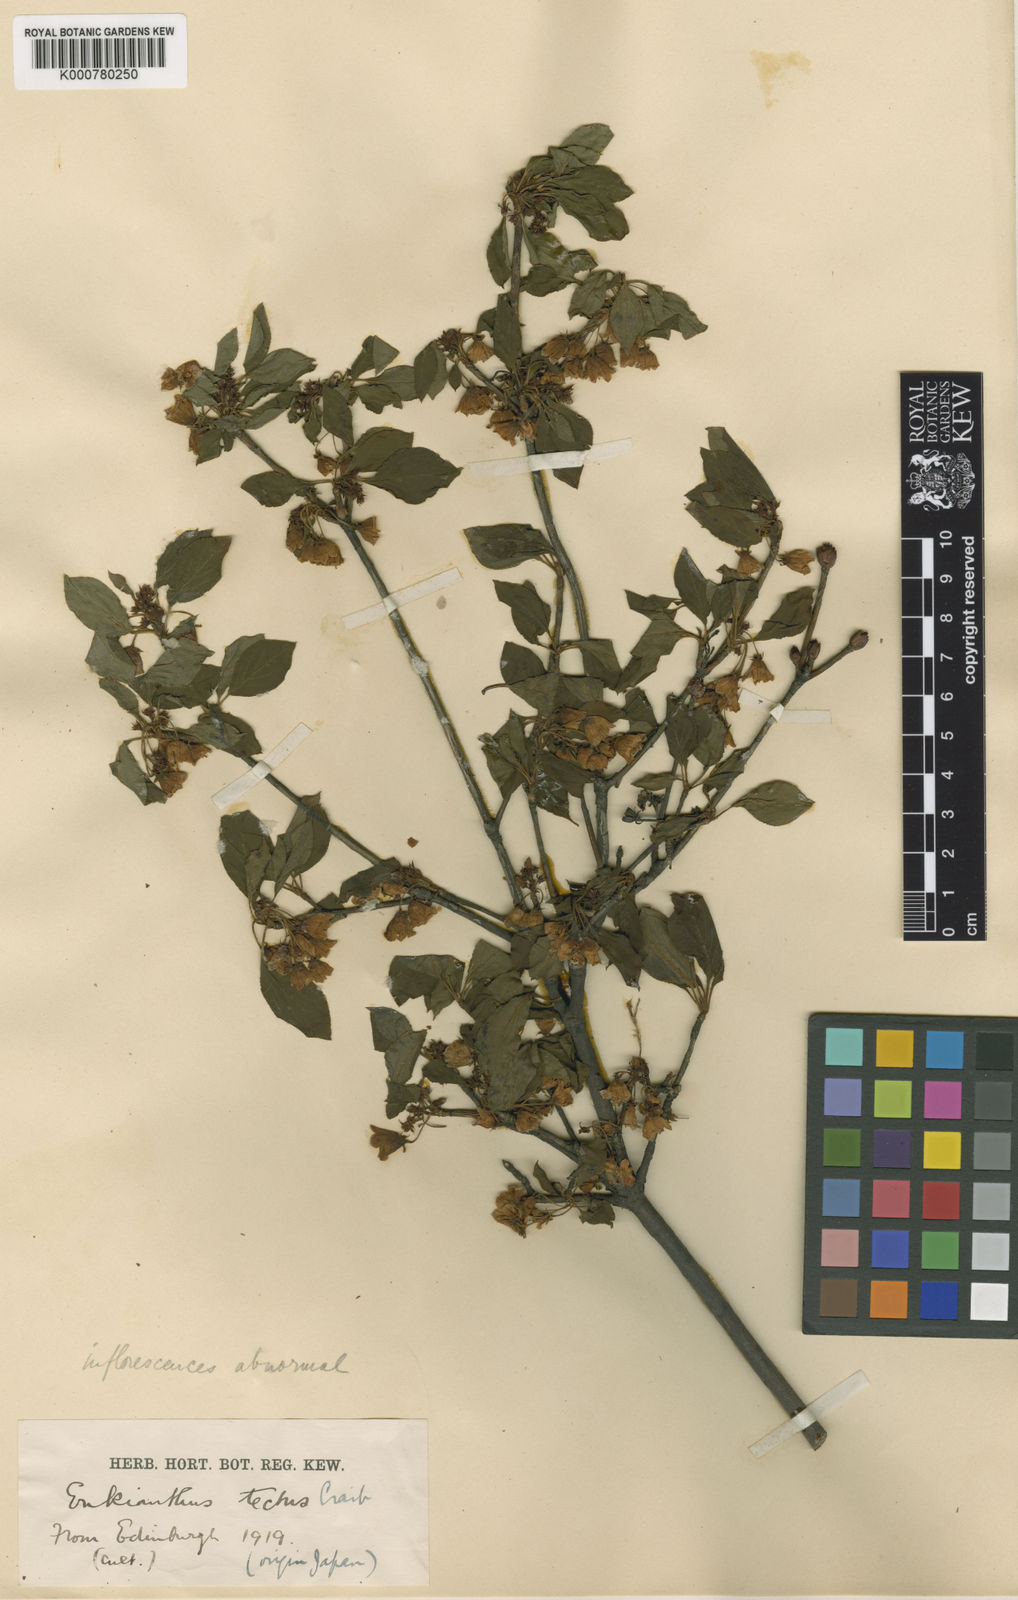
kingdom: Plantae
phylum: Tracheophyta
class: Magnoliopsida
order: Ericales
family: Ericaceae
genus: Enkianthus
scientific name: Enkianthus campanulatus
